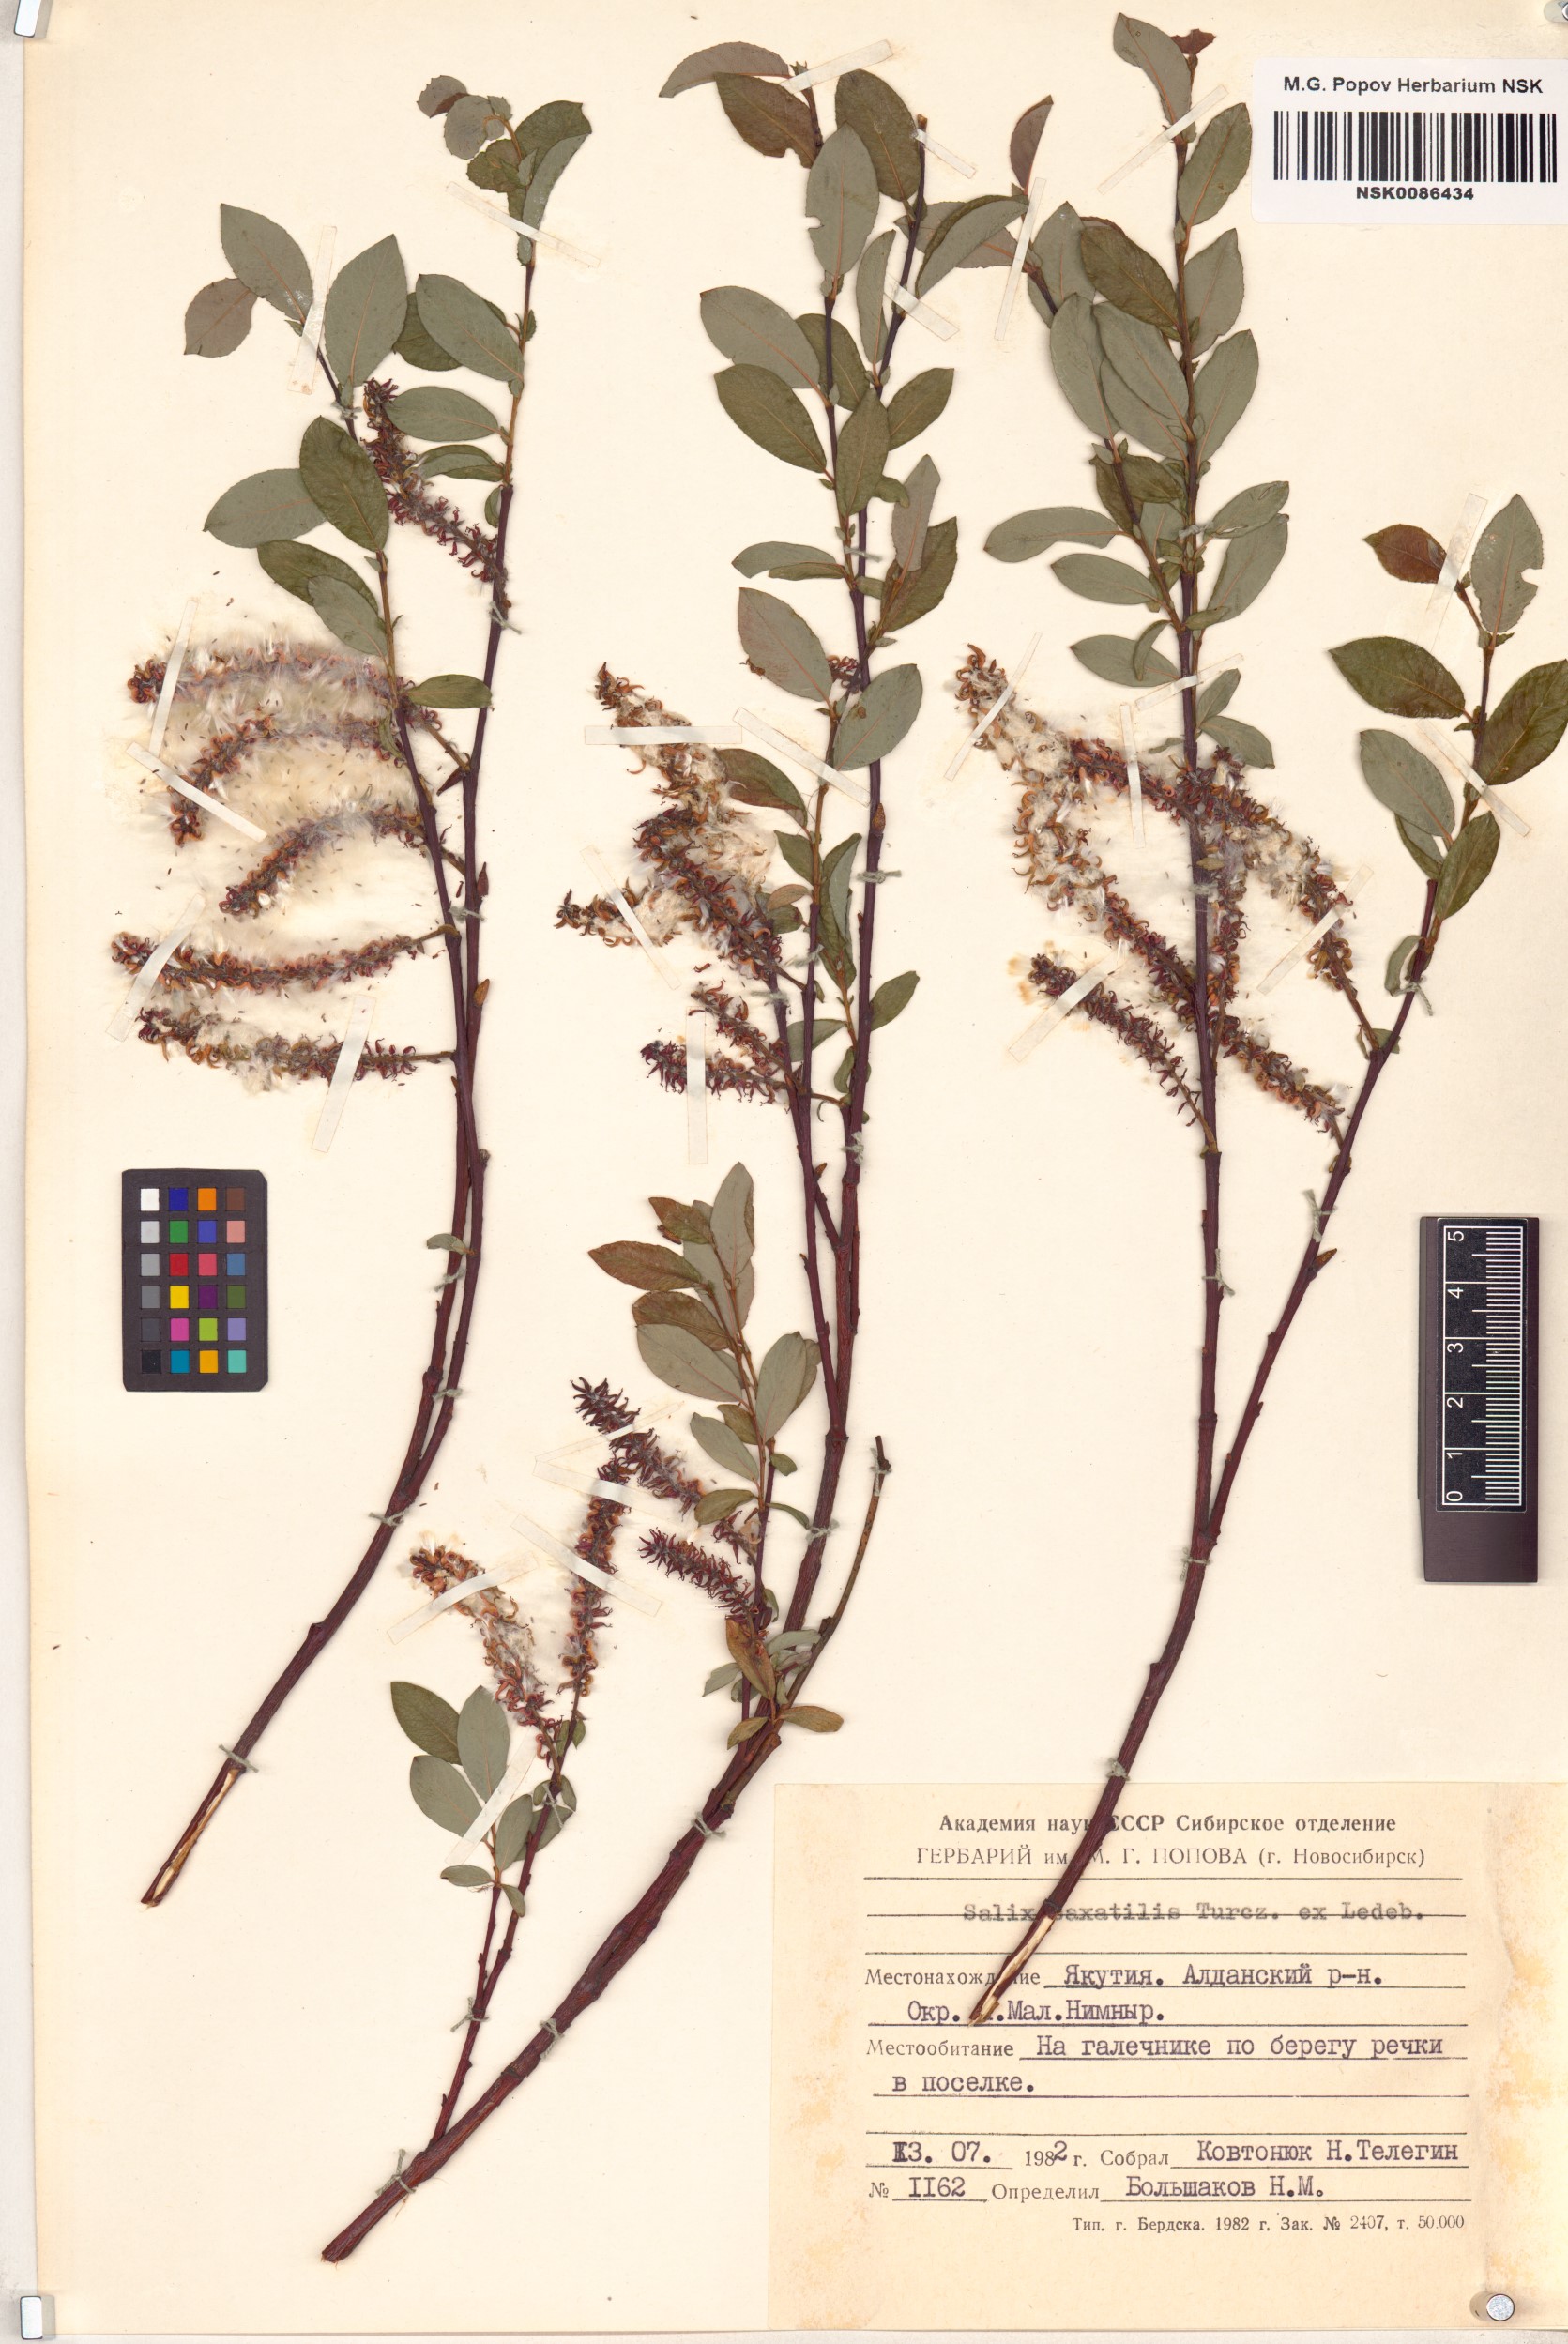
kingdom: Plantae
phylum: Tracheophyta
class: Magnoliopsida
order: Malpighiales
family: Salicaceae
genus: Salix
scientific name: Salix saxatilis
